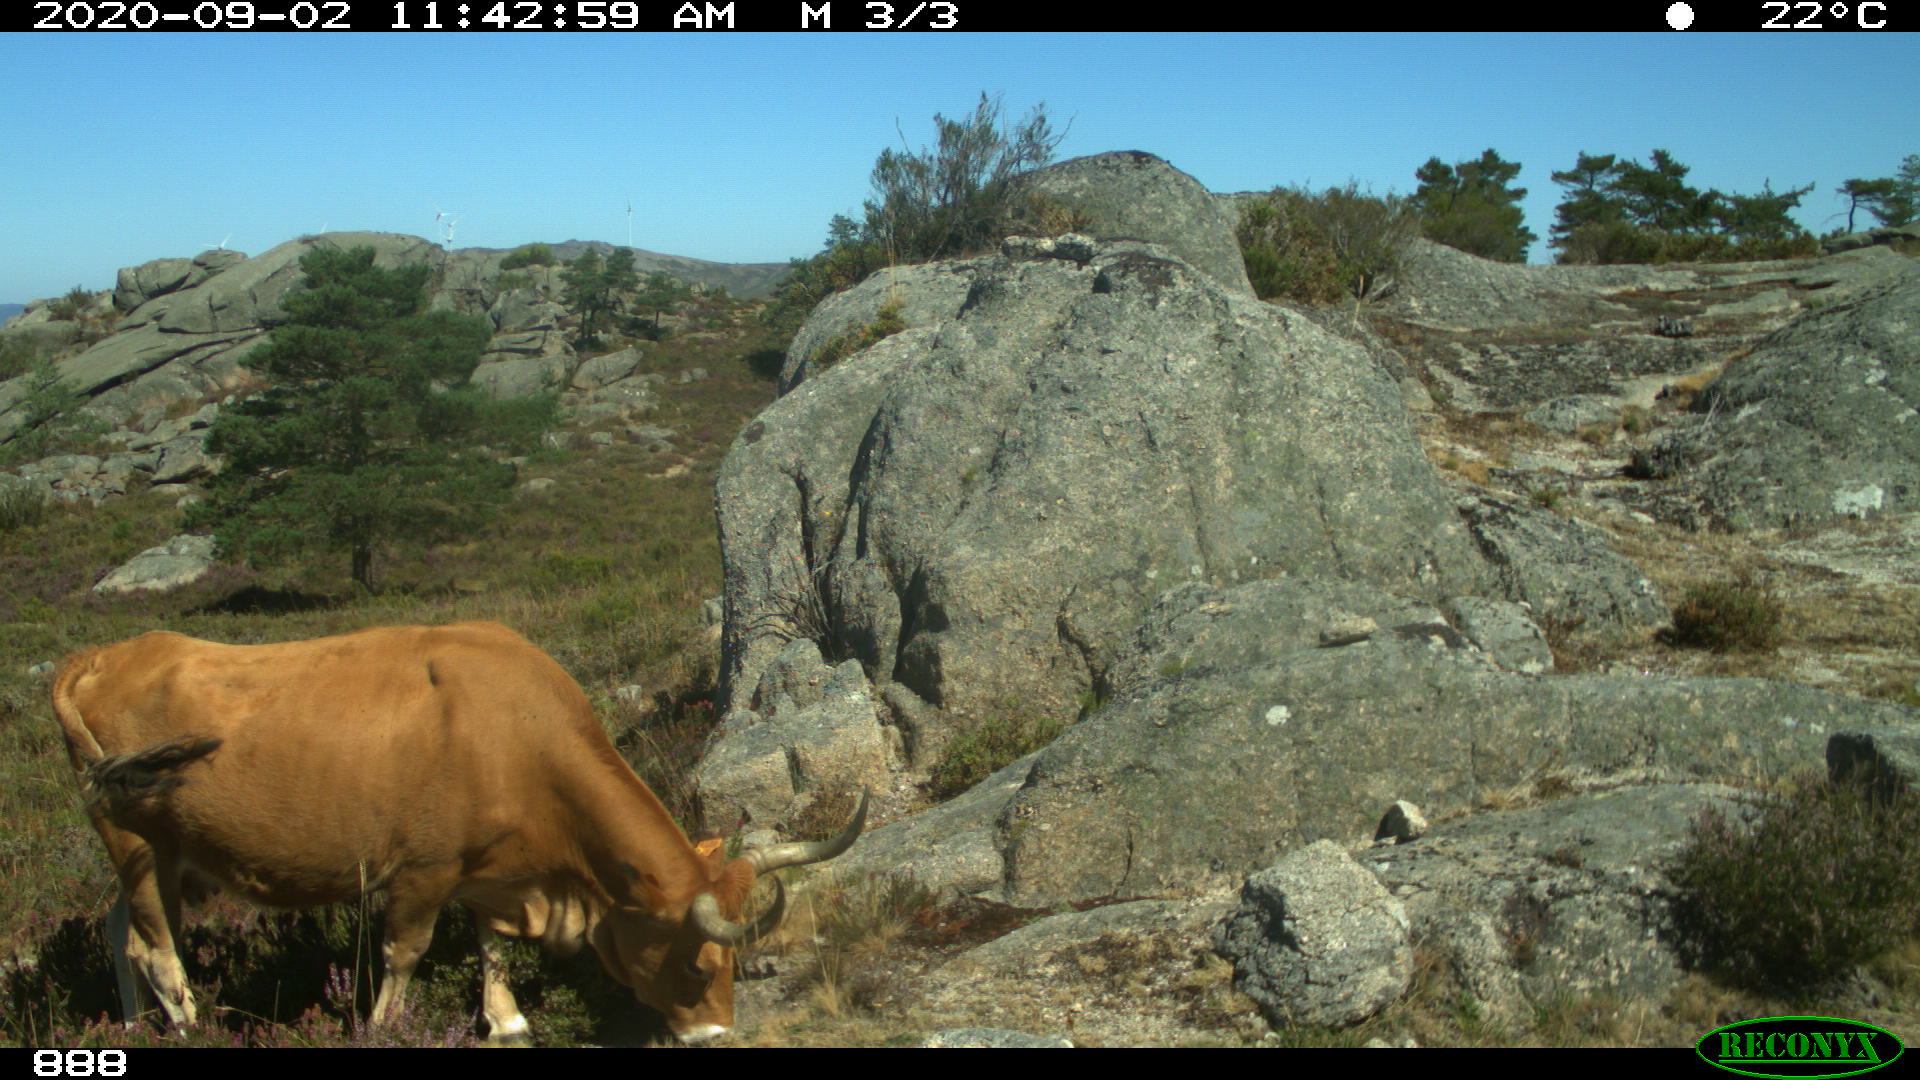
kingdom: Animalia
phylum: Chordata
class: Mammalia
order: Artiodactyla
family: Bovidae
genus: Bos
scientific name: Bos taurus
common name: Domesticated cattle
